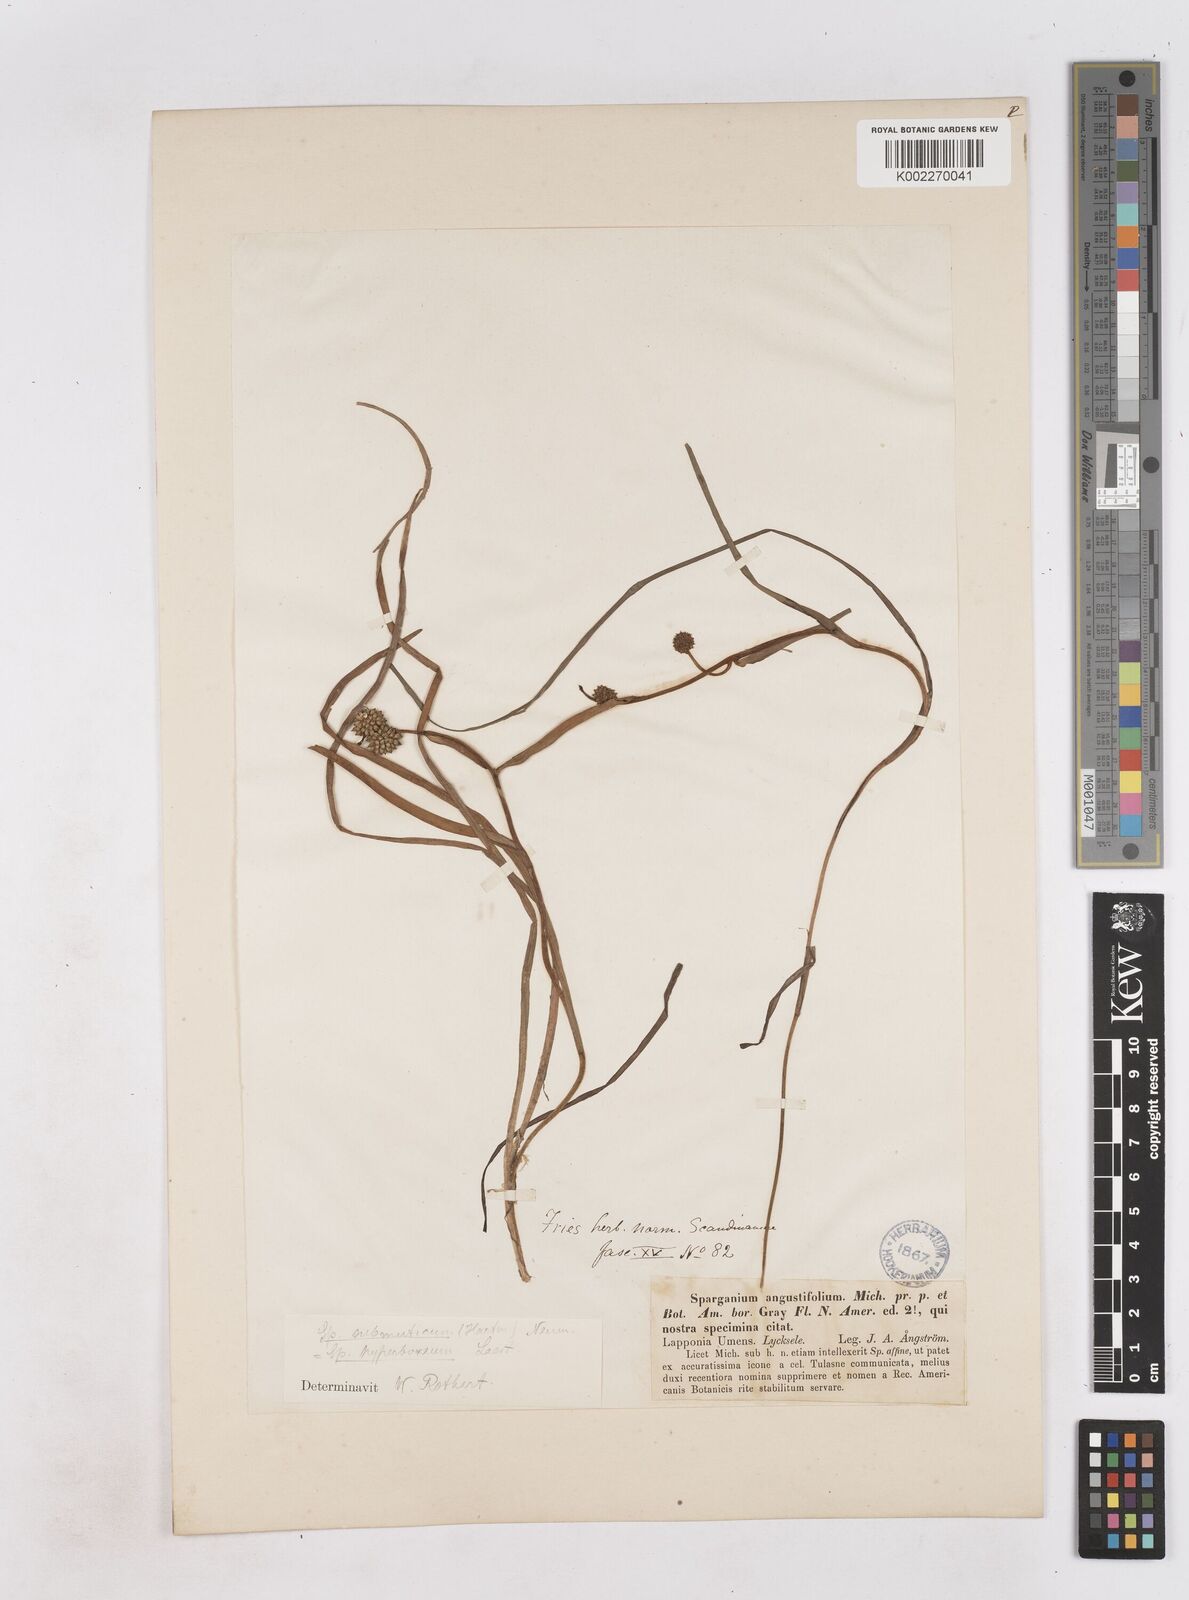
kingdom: Plantae
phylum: Tracheophyta
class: Liliopsida
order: Poales
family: Typhaceae
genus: Sparganium
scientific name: Sparganium hyperboreum
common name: Arctic burreed
